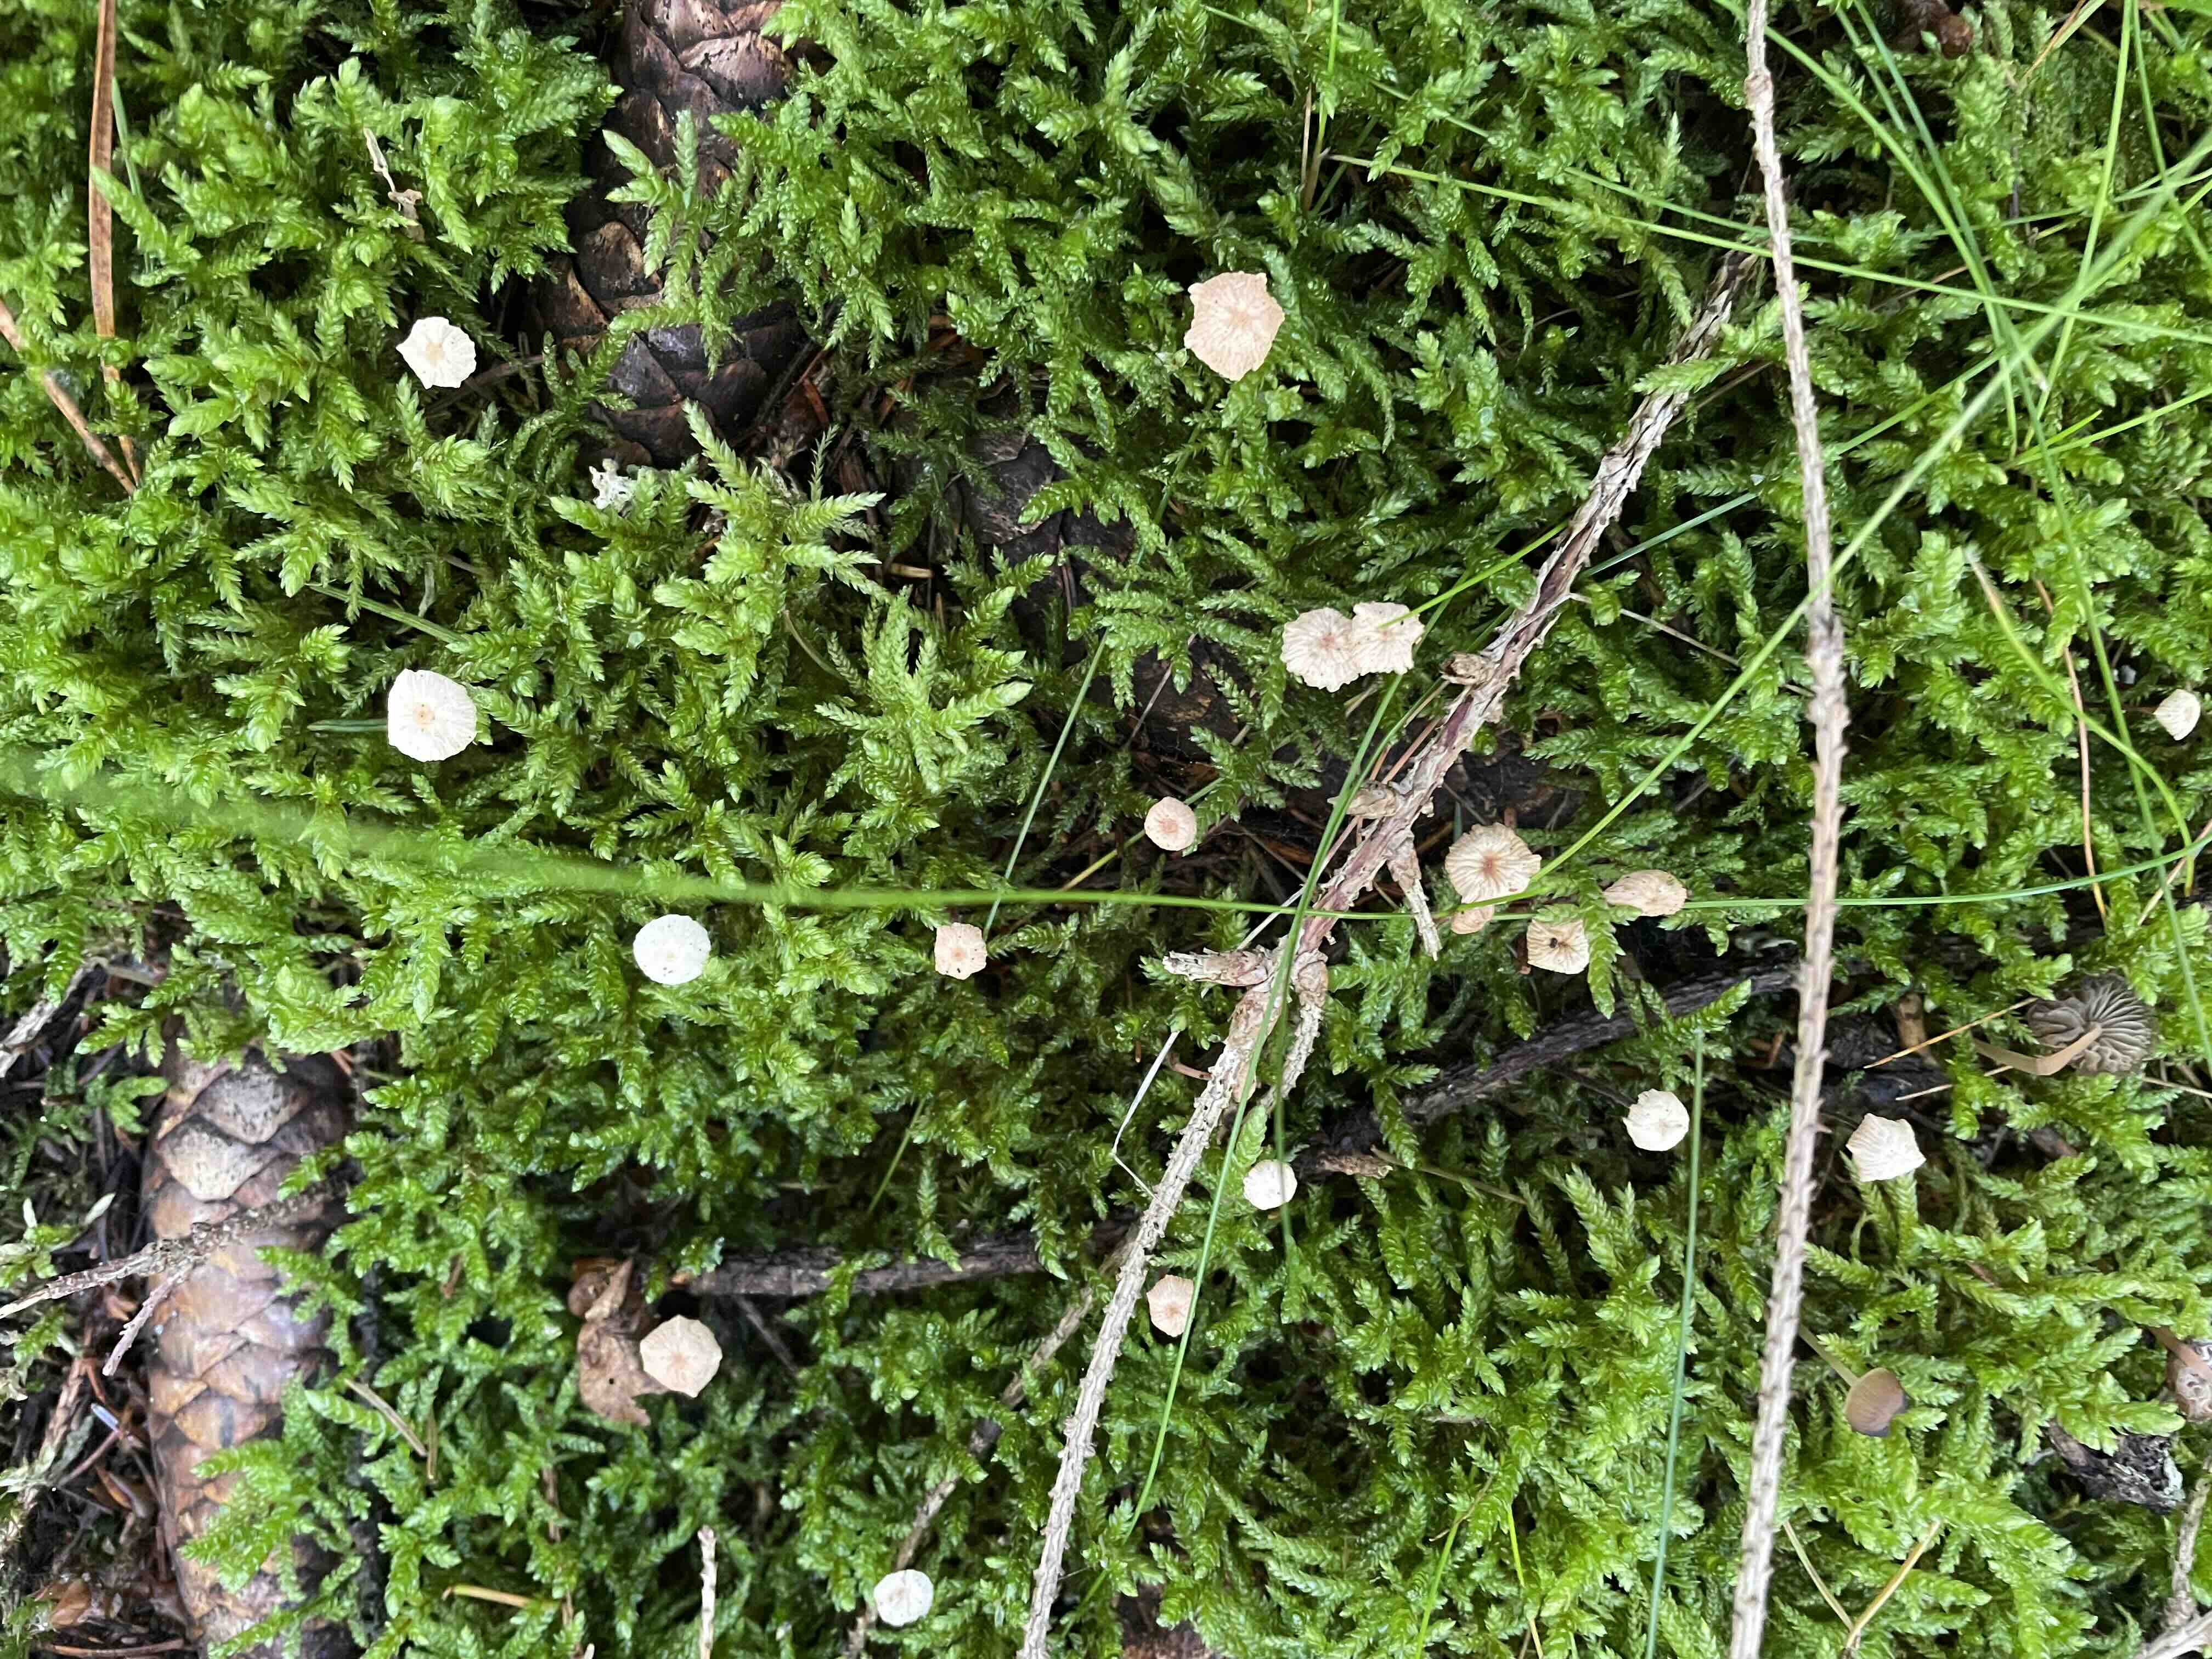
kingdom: Fungi
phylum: Basidiomycota
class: Agaricomycetes
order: Agaricales
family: Omphalotaceae
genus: Paragymnopus
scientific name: Paragymnopus perforans
